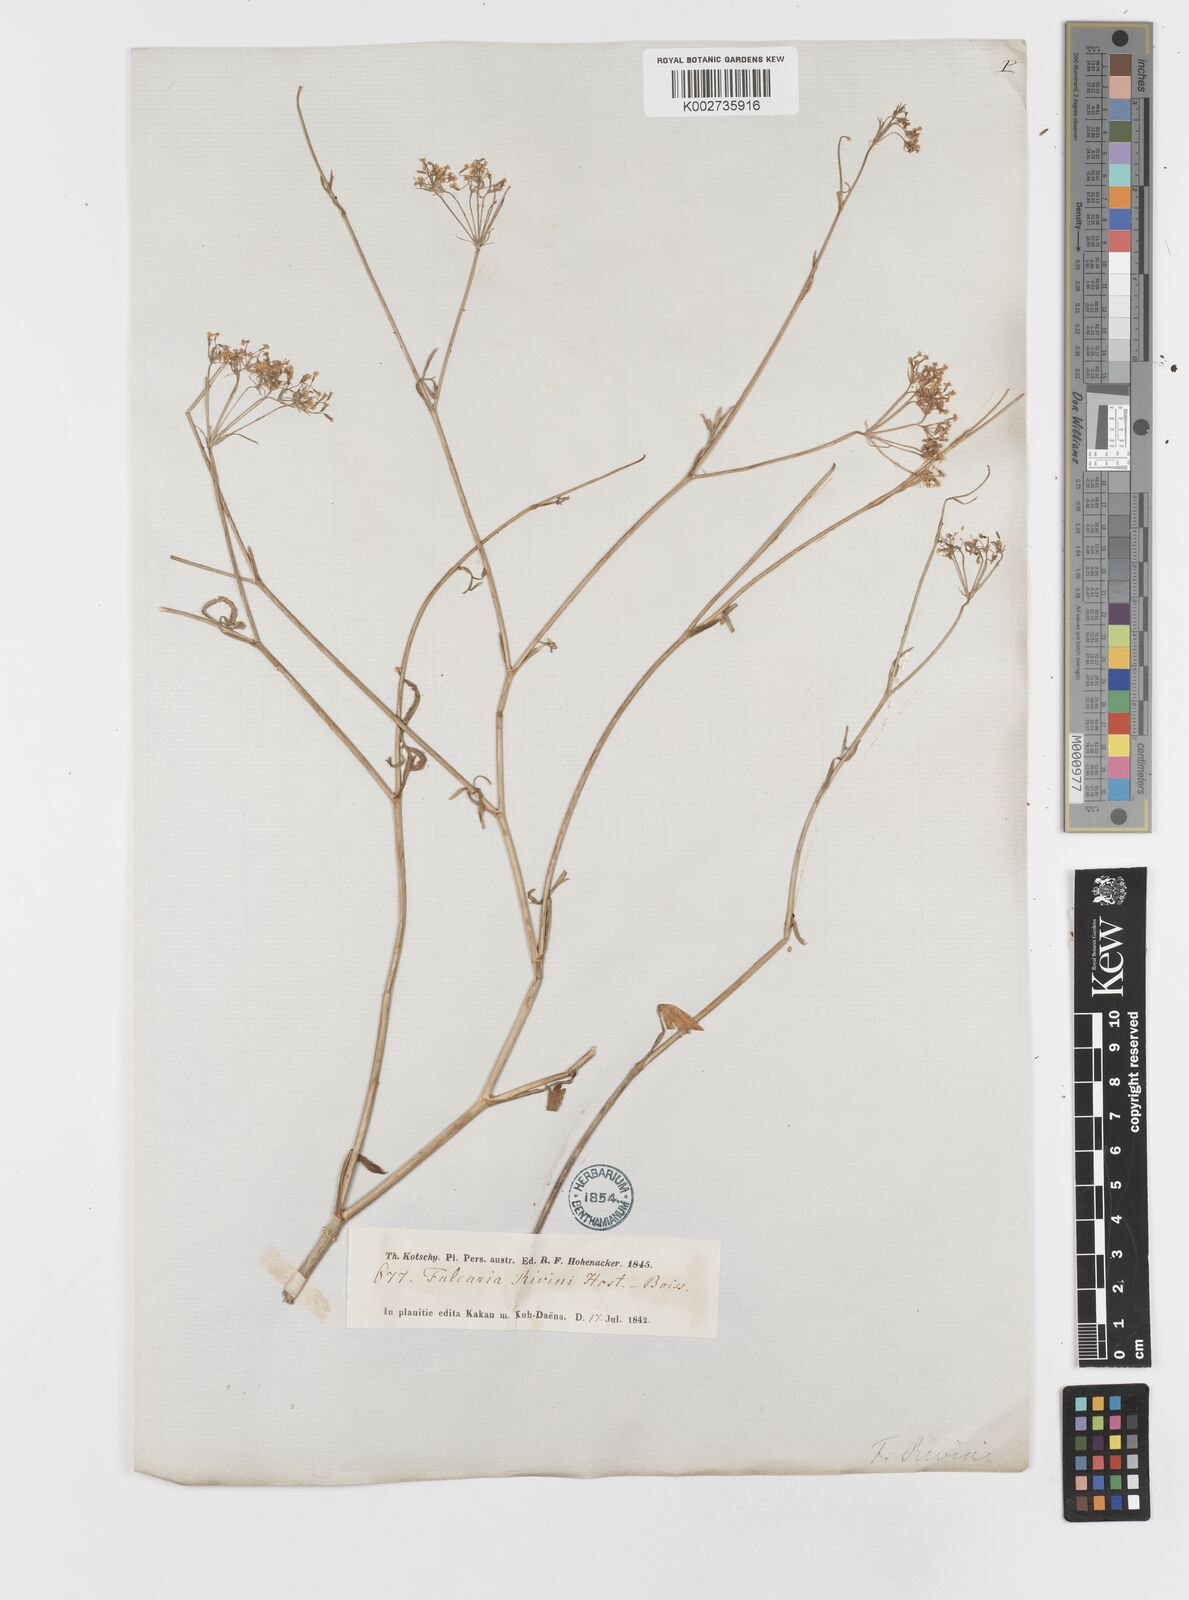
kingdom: Plantae
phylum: Tracheophyta
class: Magnoliopsida
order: Apiales
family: Apiaceae
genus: Falcaria
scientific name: Falcaria vulgaris
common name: Longleaf
